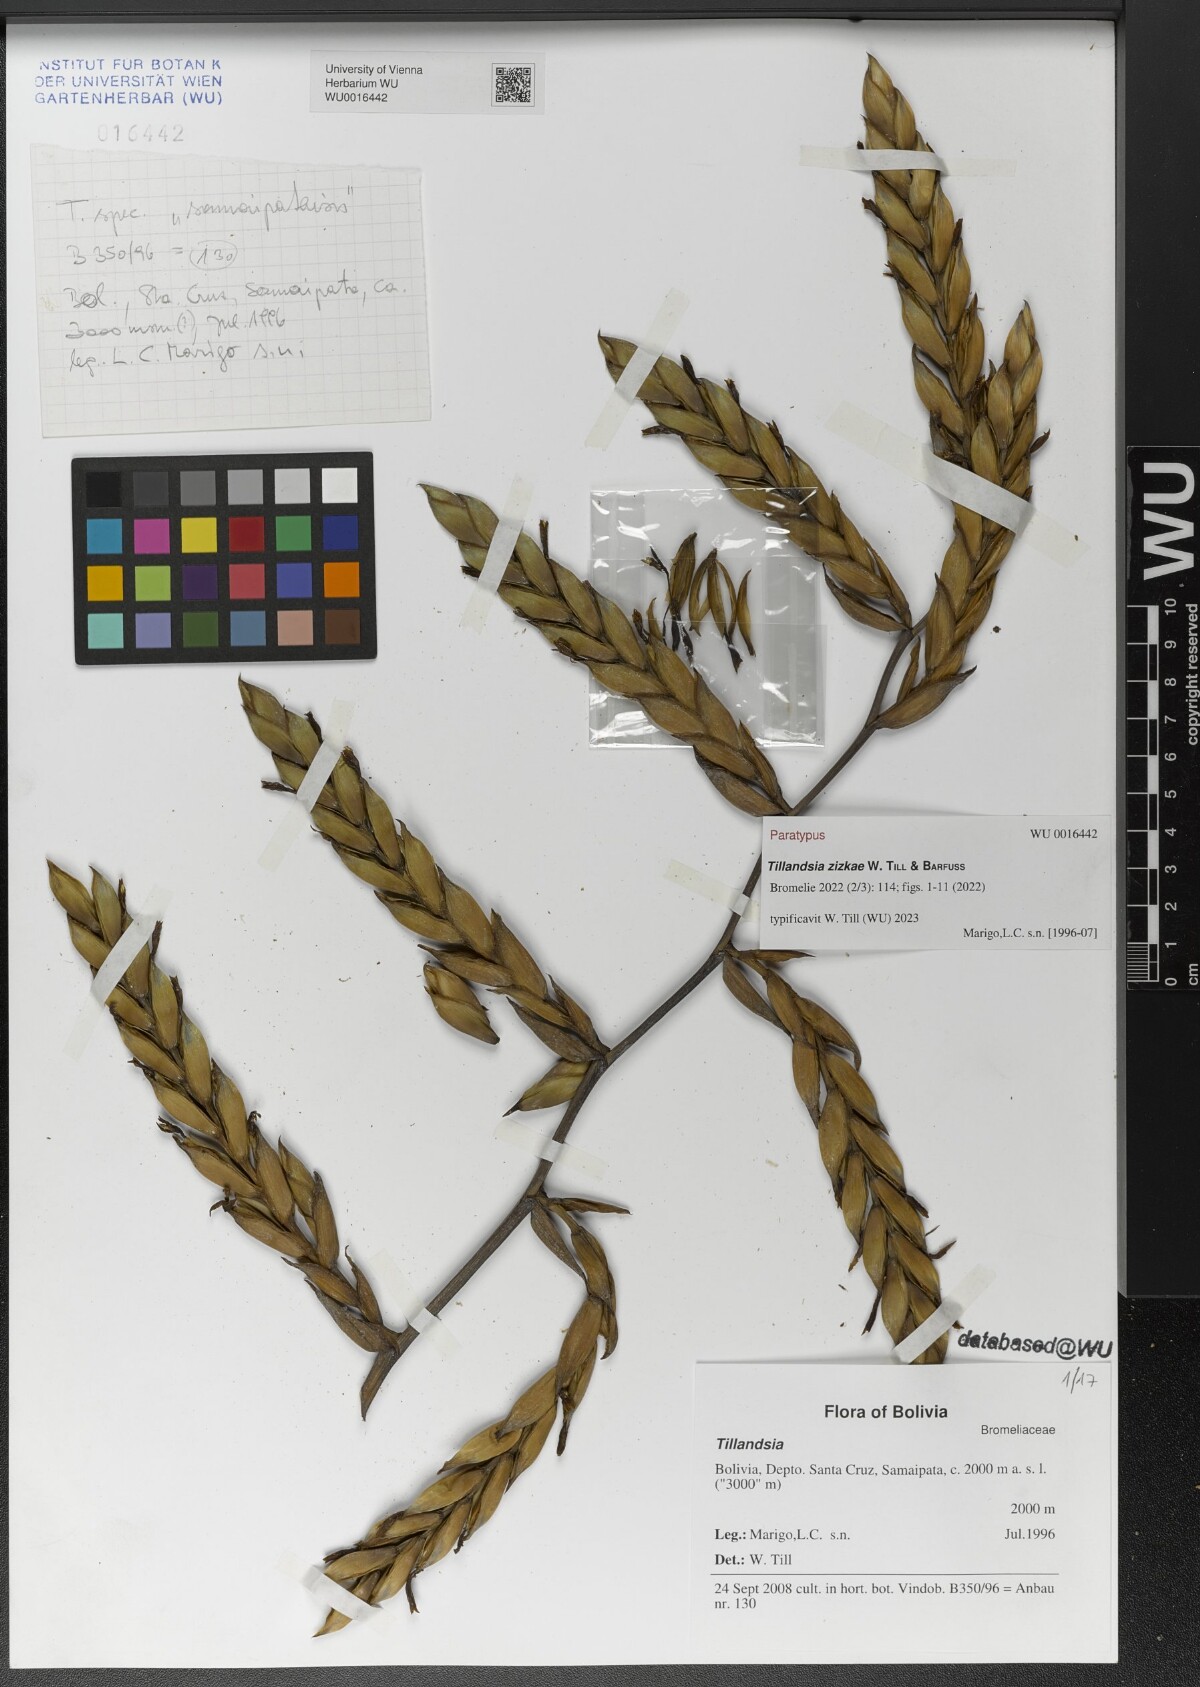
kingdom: Plantae
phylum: Tracheophyta
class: Liliopsida
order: Poales
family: Bromeliaceae
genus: Tillandsia
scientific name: Tillandsia
